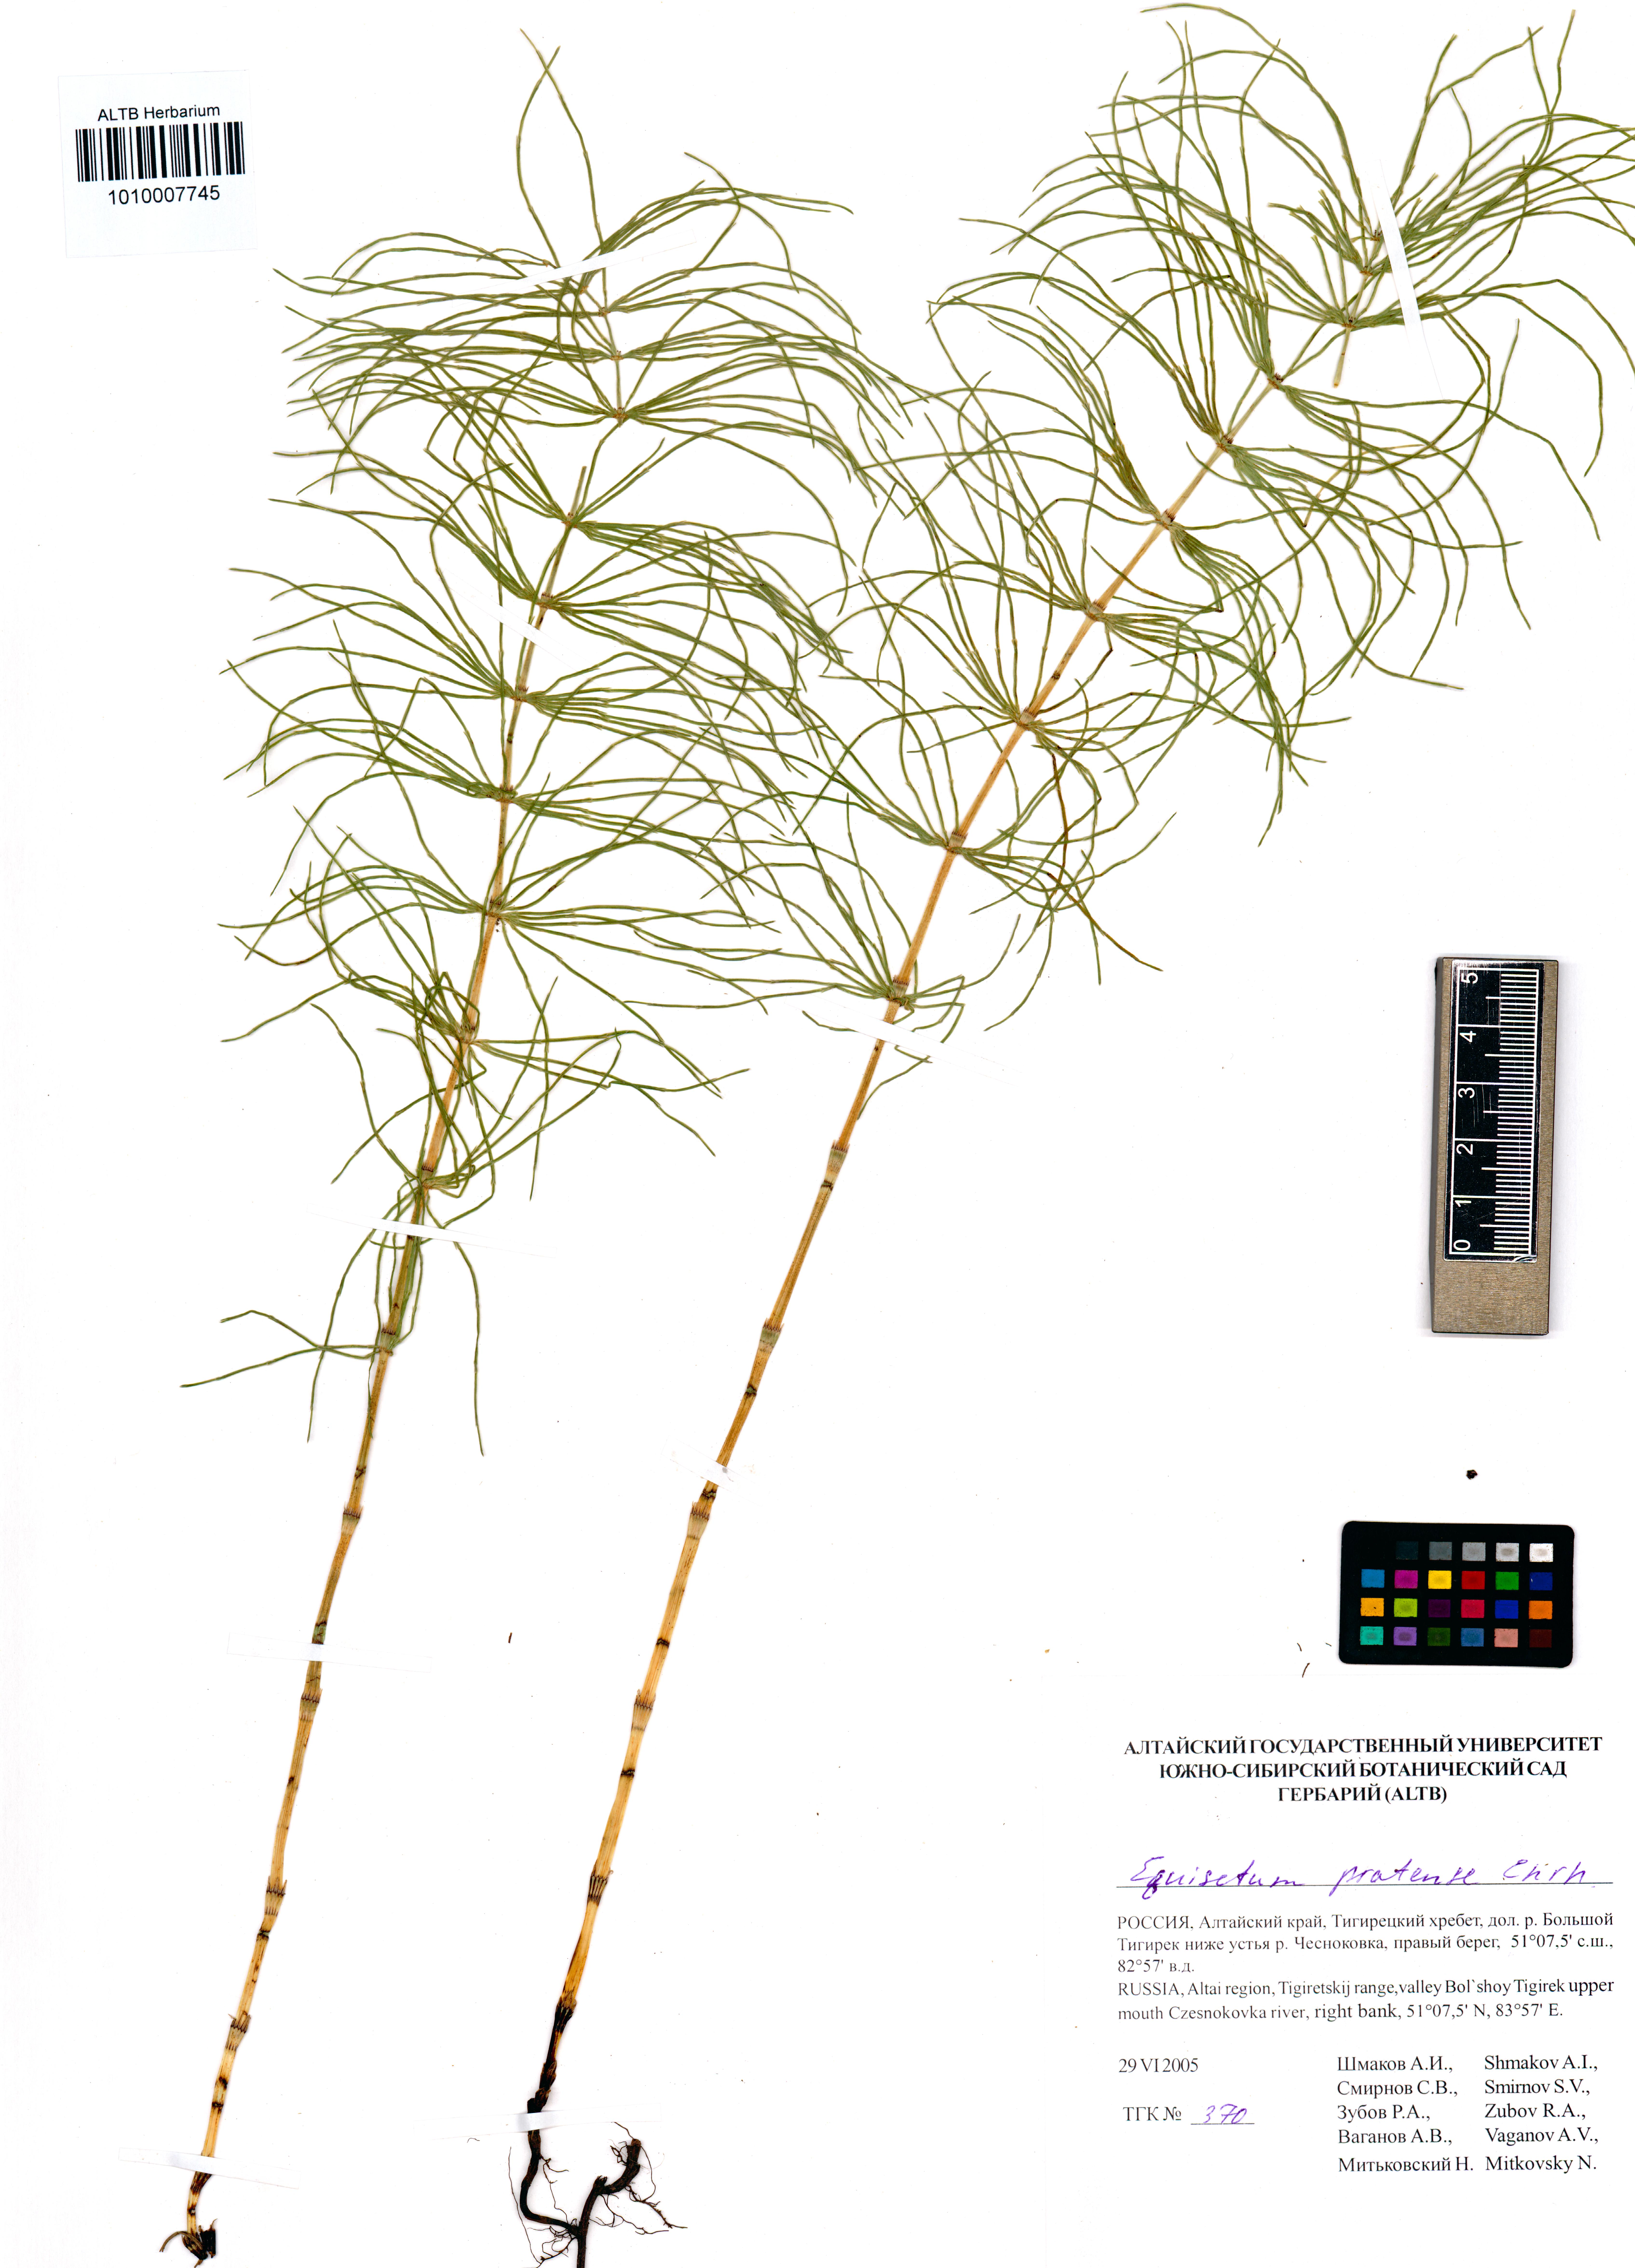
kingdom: Plantae
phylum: Tracheophyta
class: Polypodiopsida
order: Equisetales
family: Equisetaceae
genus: Equisetum
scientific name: Equisetum pratense
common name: Meadow horsetail
